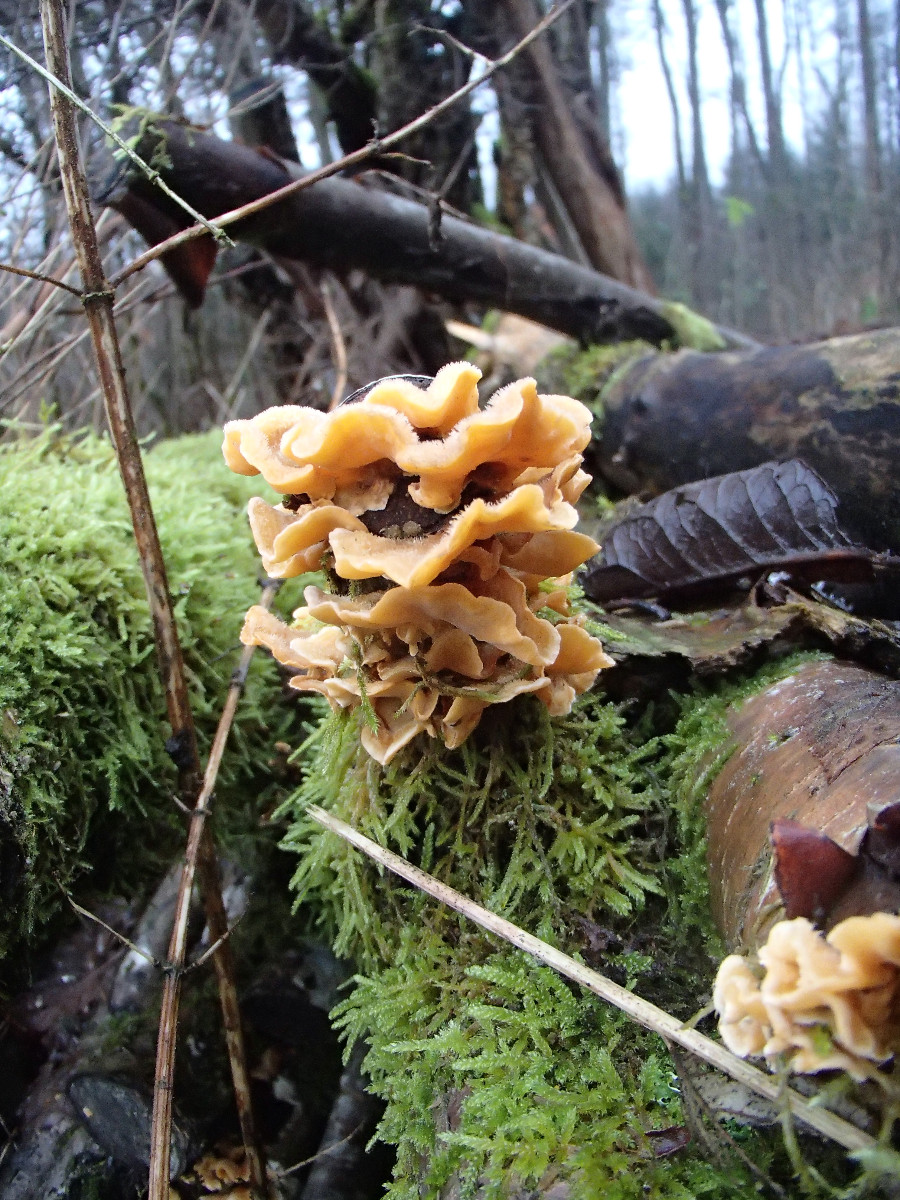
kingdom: Fungi
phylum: Basidiomycota
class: Agaricomycetes
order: Russulales
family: Stereaceae
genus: Stereum
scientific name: Stereum hirsutum
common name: håret lædersvamp
